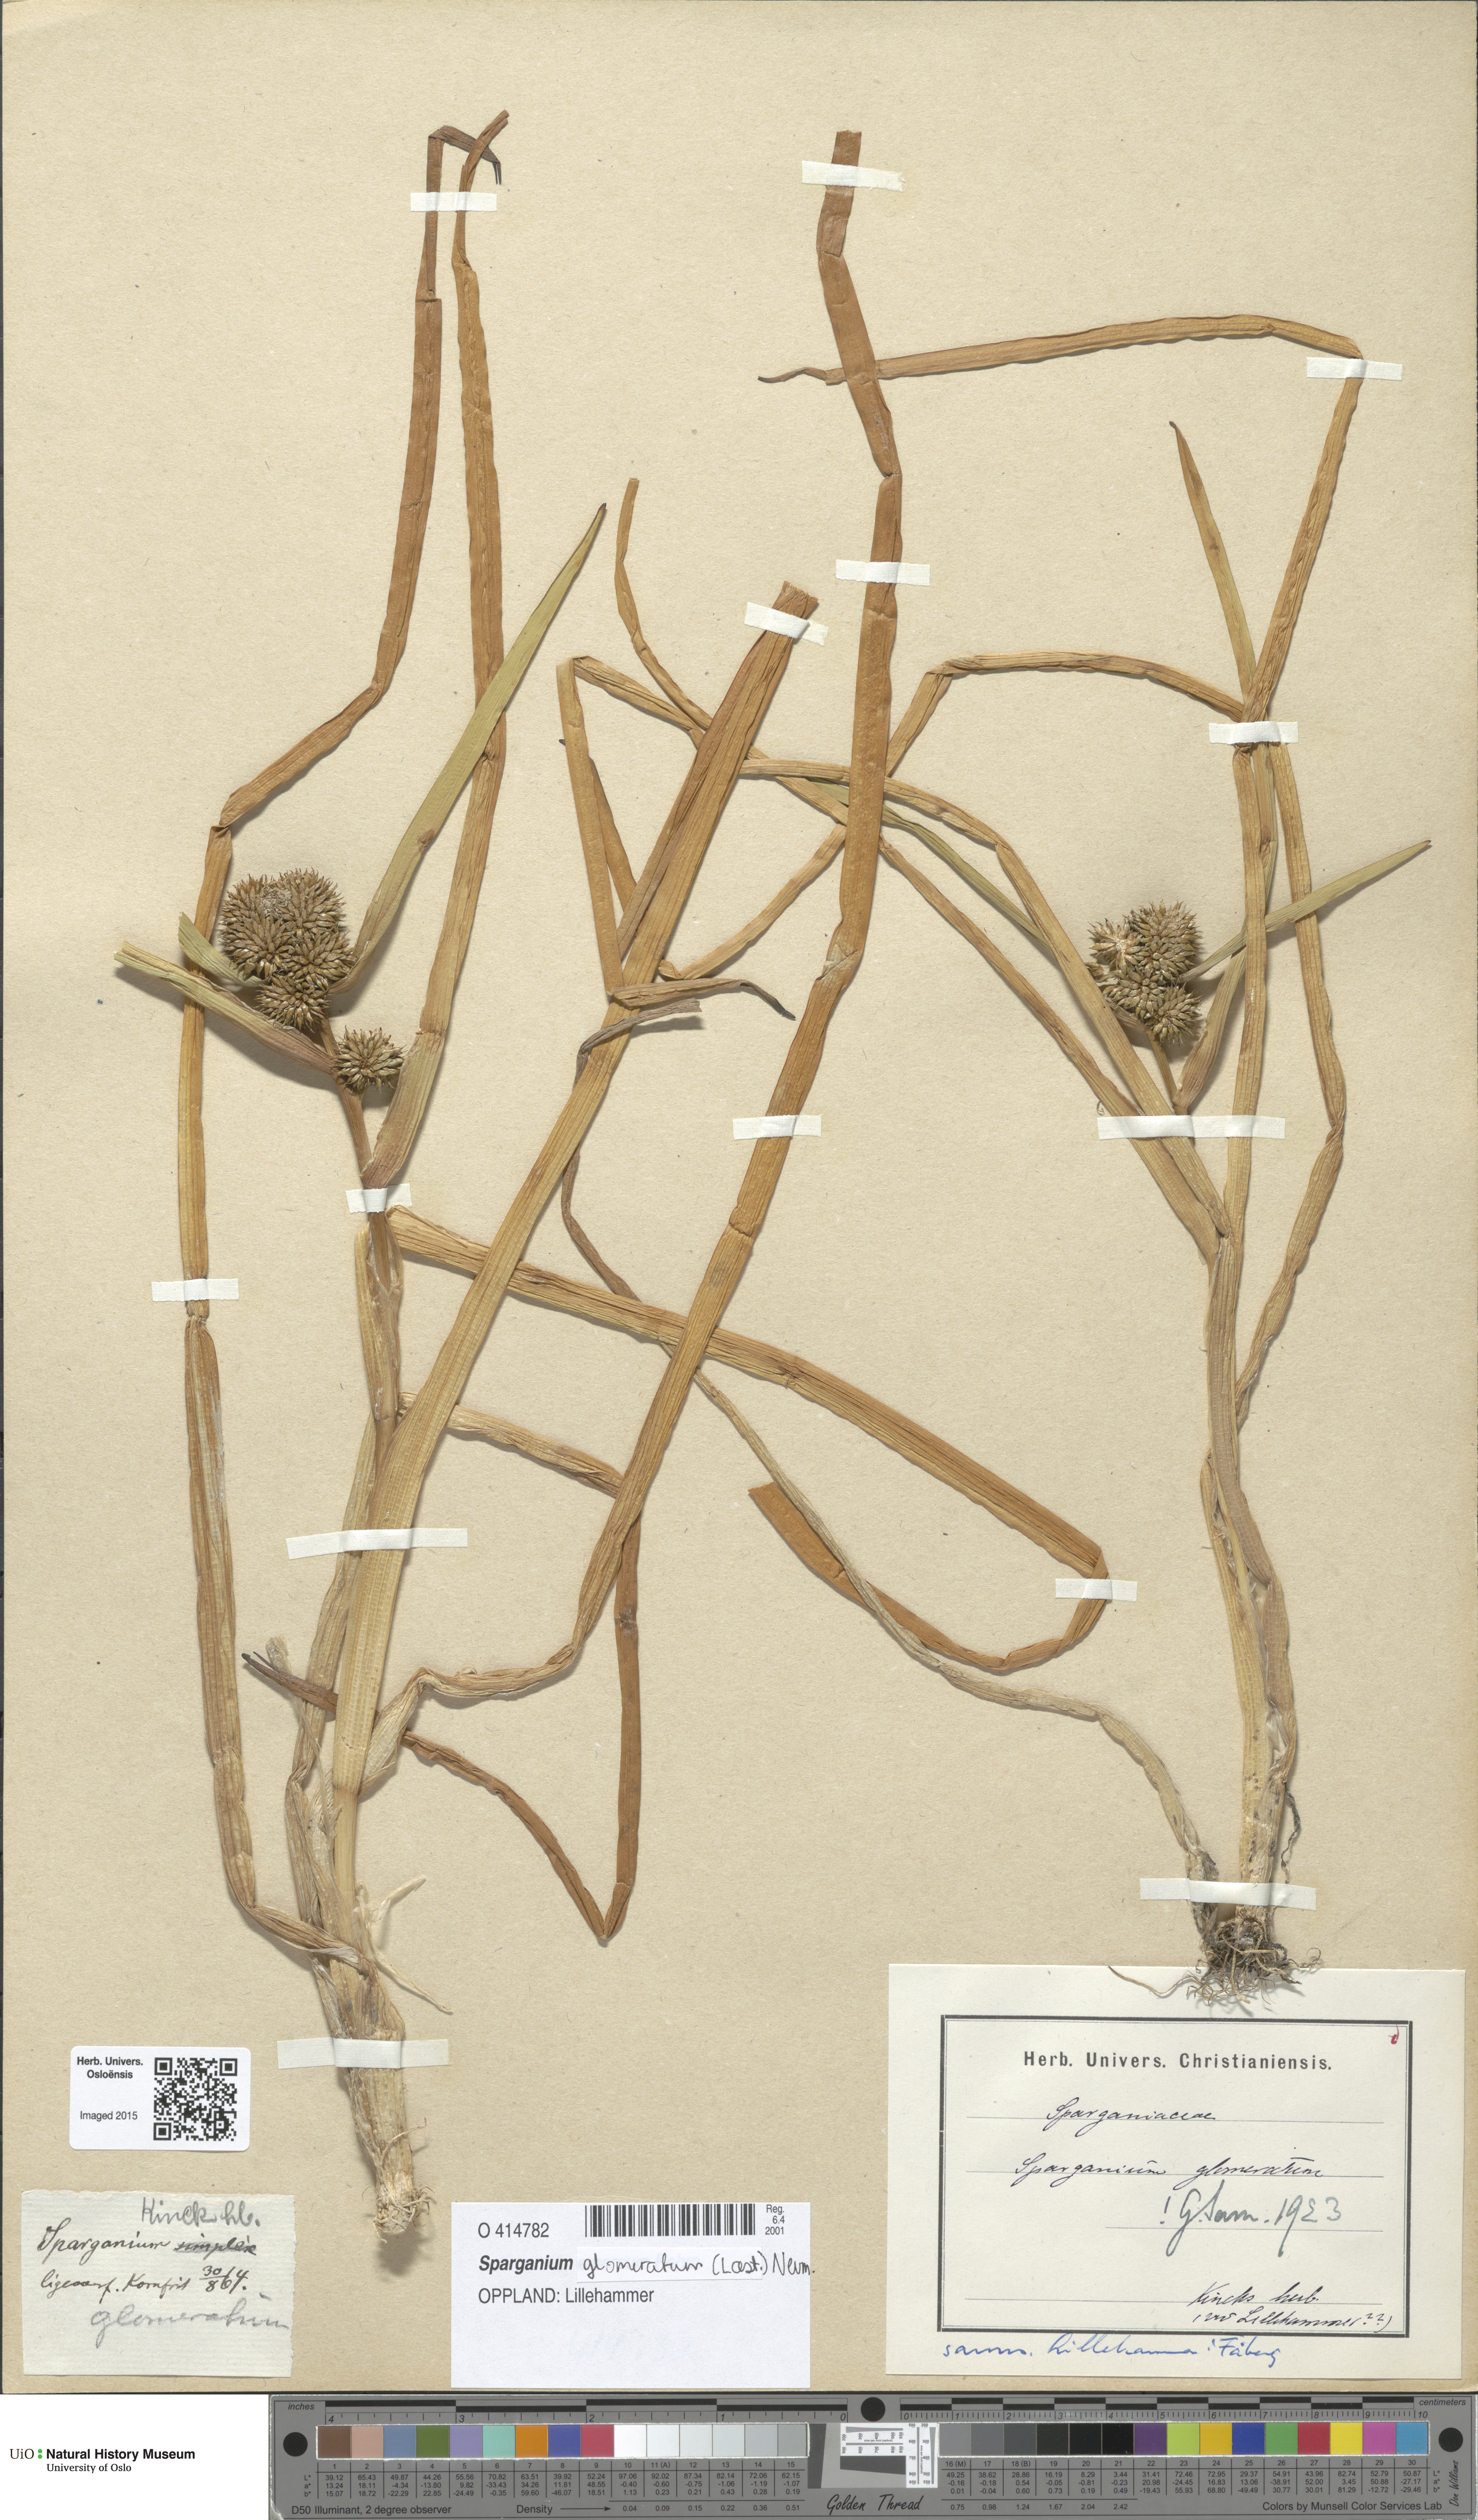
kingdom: Plantae
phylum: Tracheophyta
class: Liliopsida
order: Poales
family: Typhaceae
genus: Sparganium
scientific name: Sparganium glomeratum
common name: Clustered burreed
